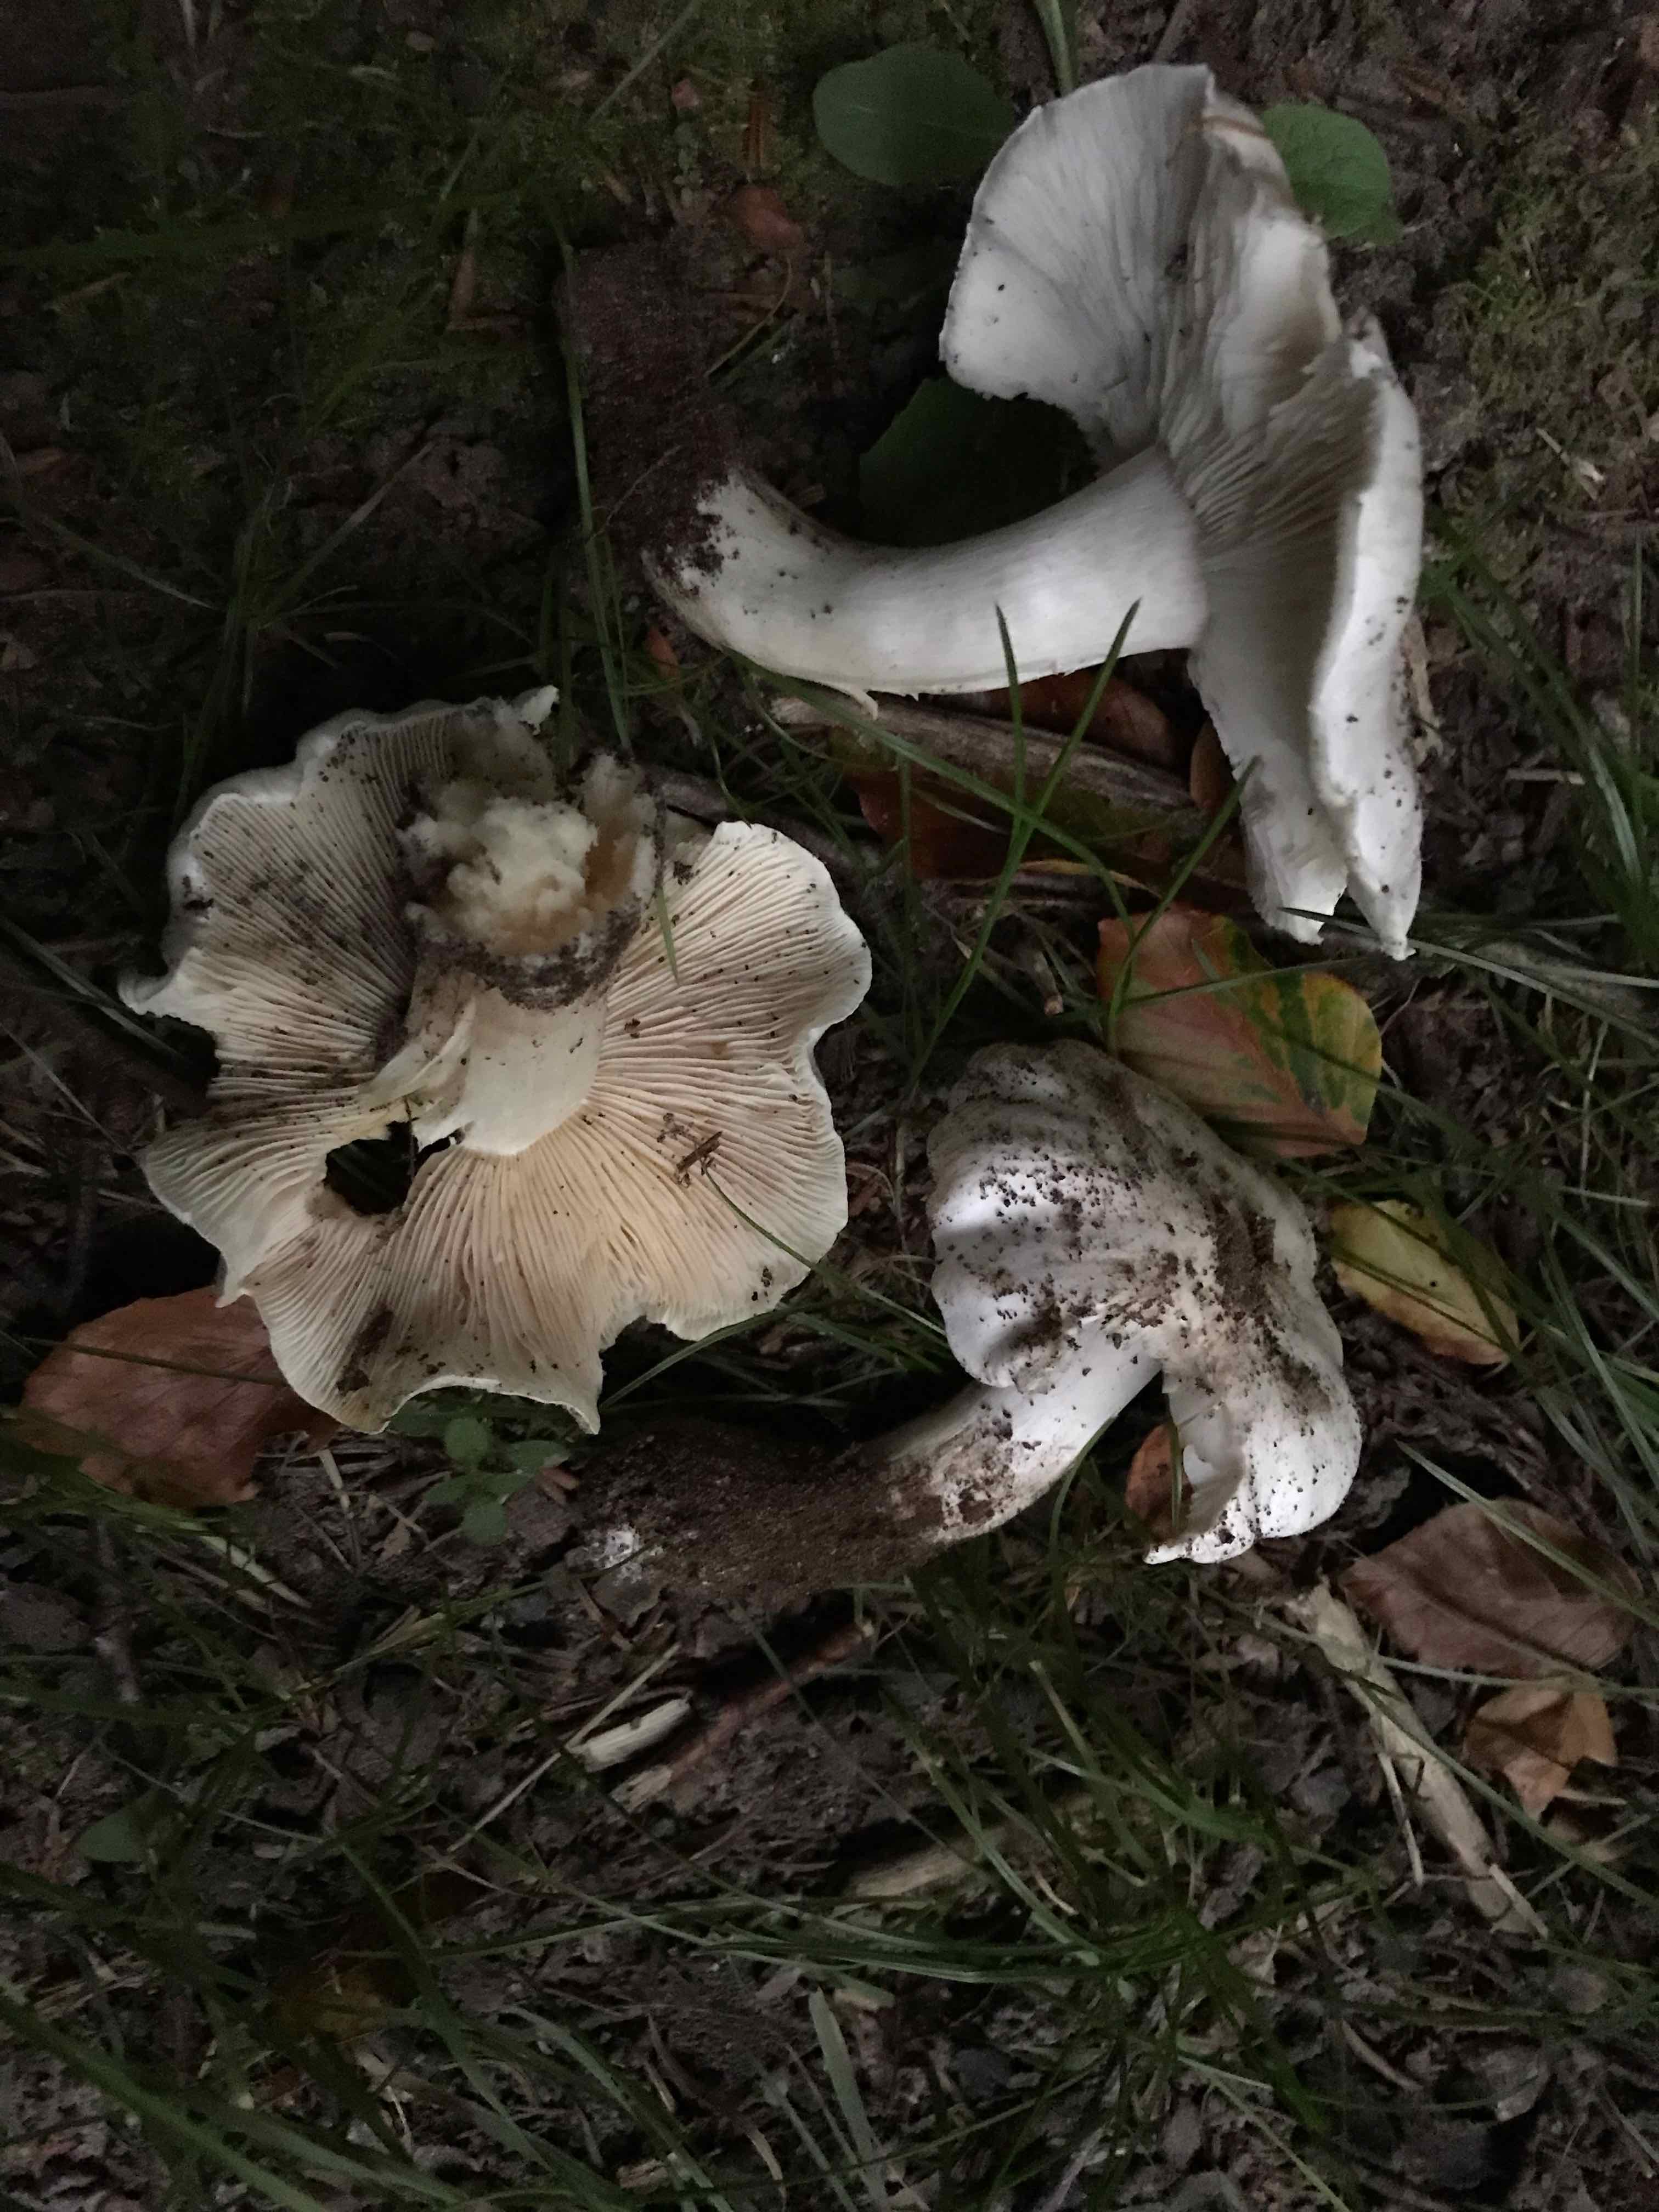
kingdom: Fungi
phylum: Basidiomycota
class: Agaricomycetes
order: Agaricales
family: Tricholomataceae
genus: Tricholoma
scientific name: Tricholoma columbetta
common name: silke-ridderhat
